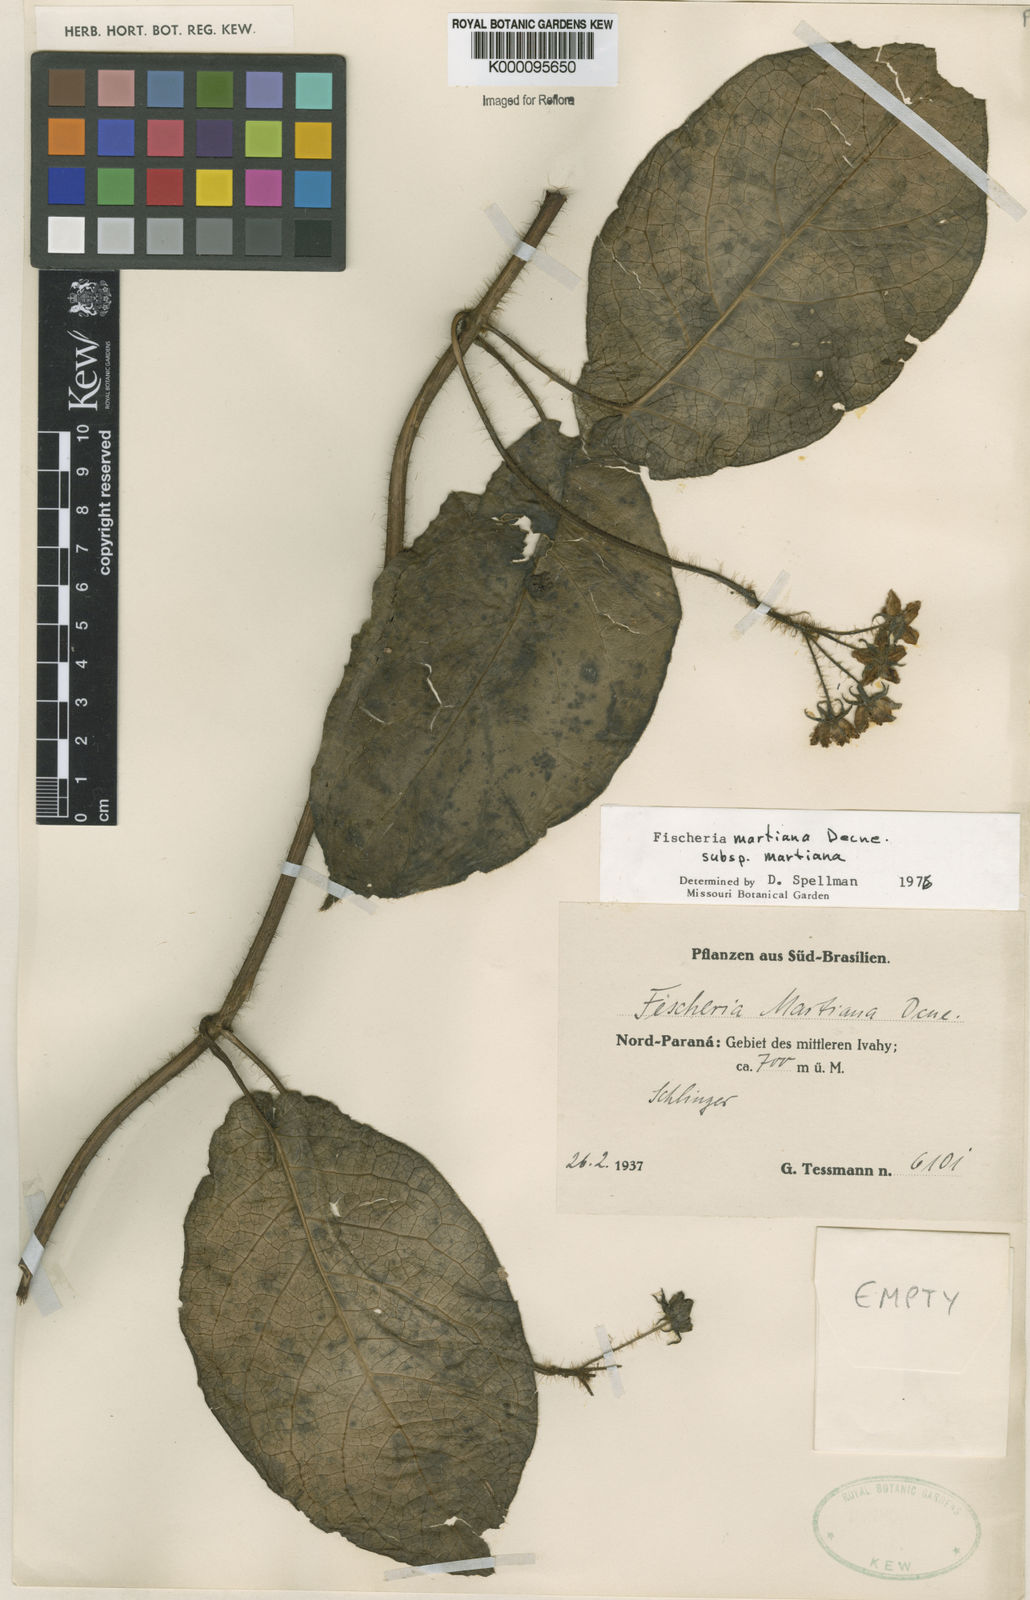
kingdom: Plantae
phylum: Tracheophyta
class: Magnoliopsida
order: Gentianales
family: Apocynaceae
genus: Fischeria
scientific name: Fischeria stellata
